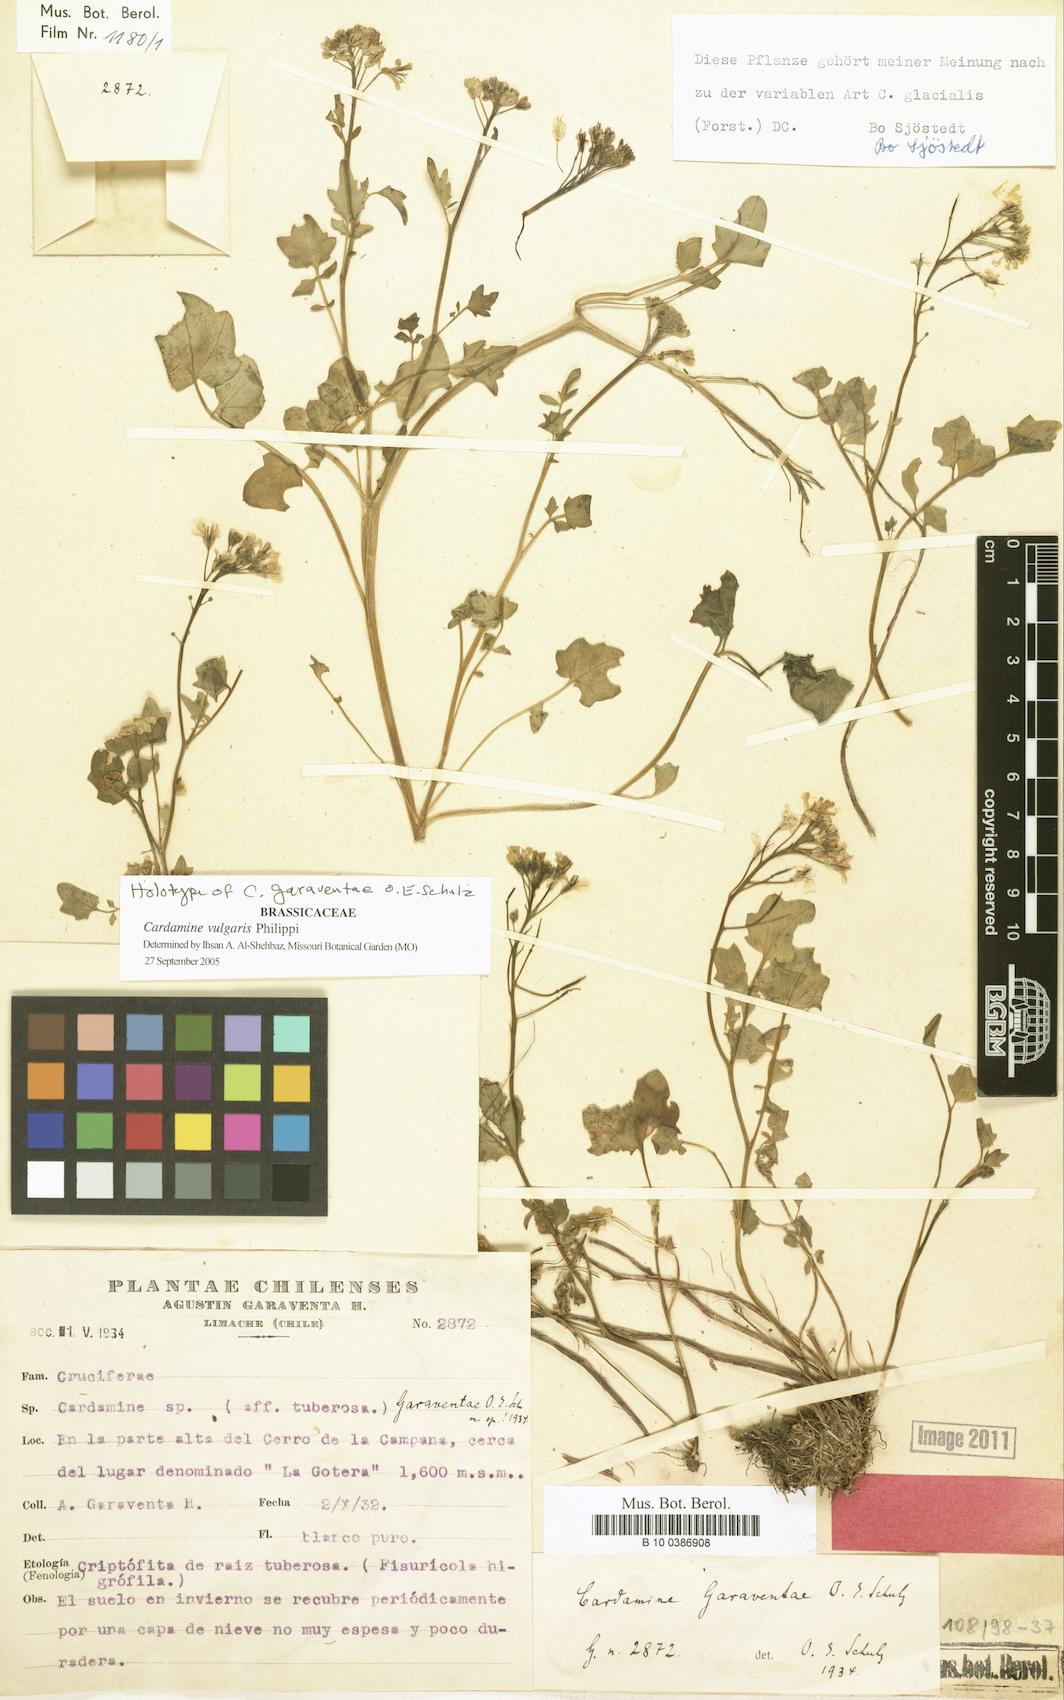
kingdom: Plantae
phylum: Tracheophyta
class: Magnoliopsida
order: Brassicales
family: Brassicaceae
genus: Cardamine
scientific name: Cardamine vulgaris
